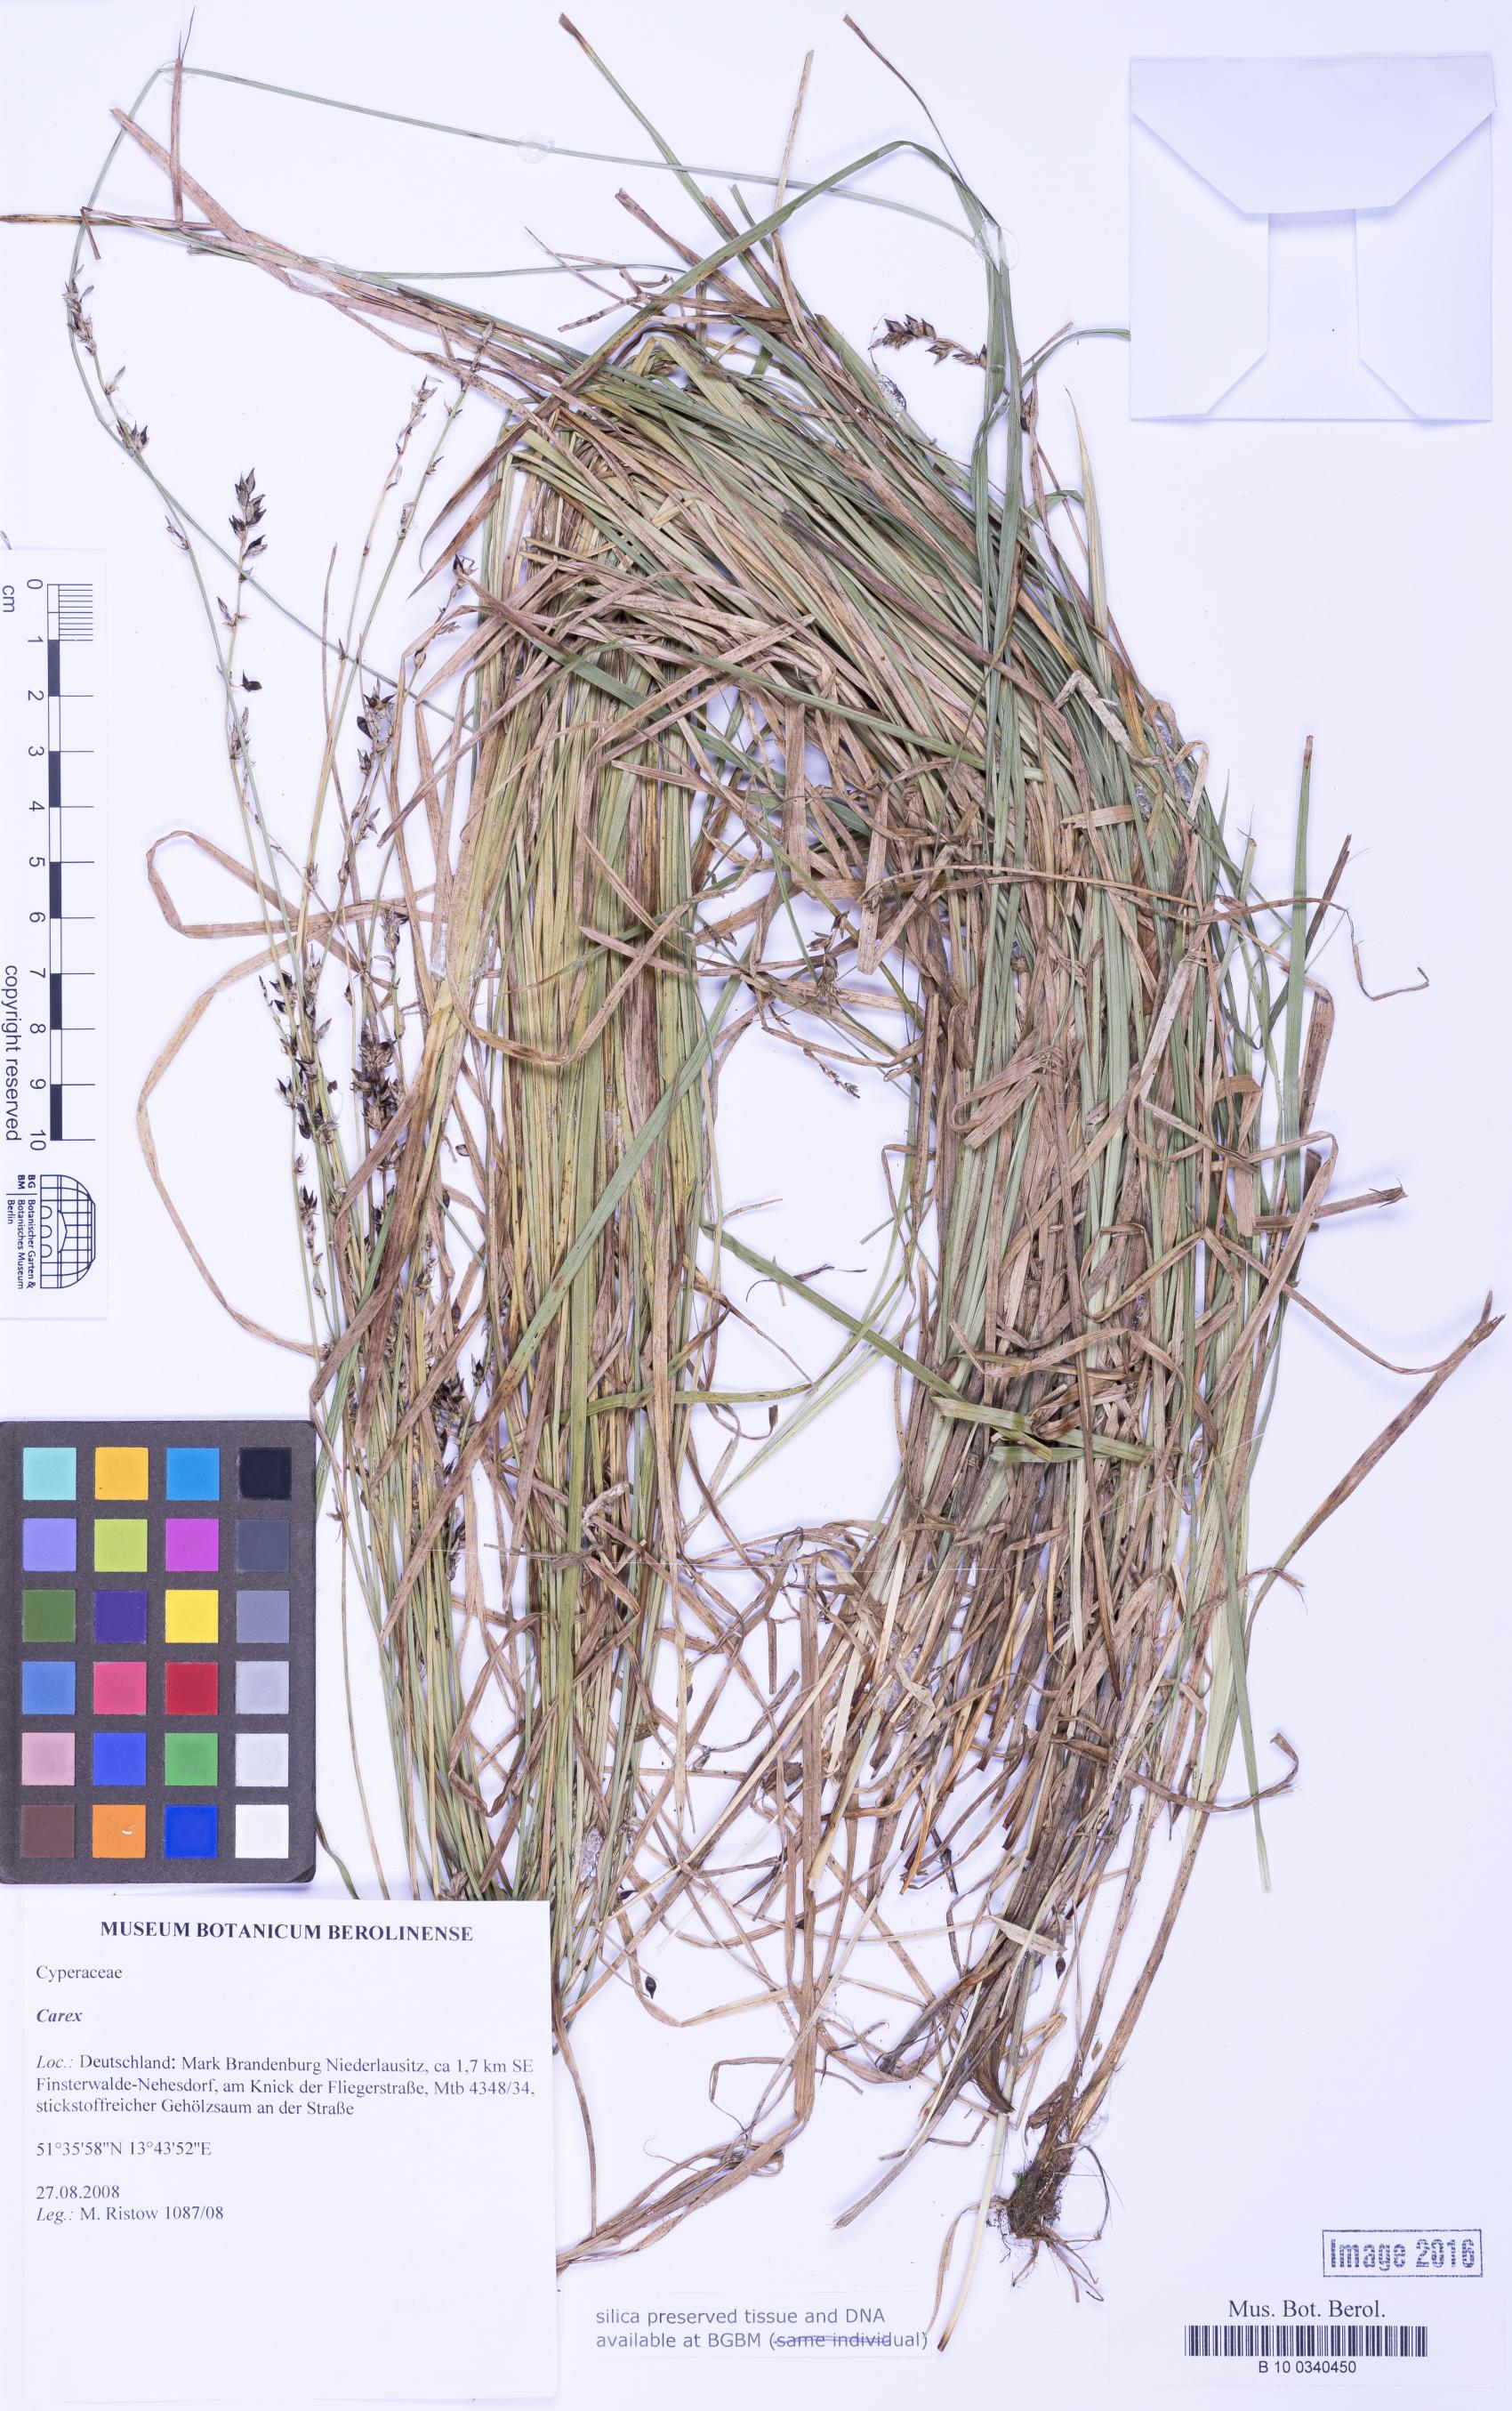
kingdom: Plantae
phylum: Tracheophyta
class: Liliopsida
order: Poales
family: Cyperaceae
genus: Carex
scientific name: Carex
